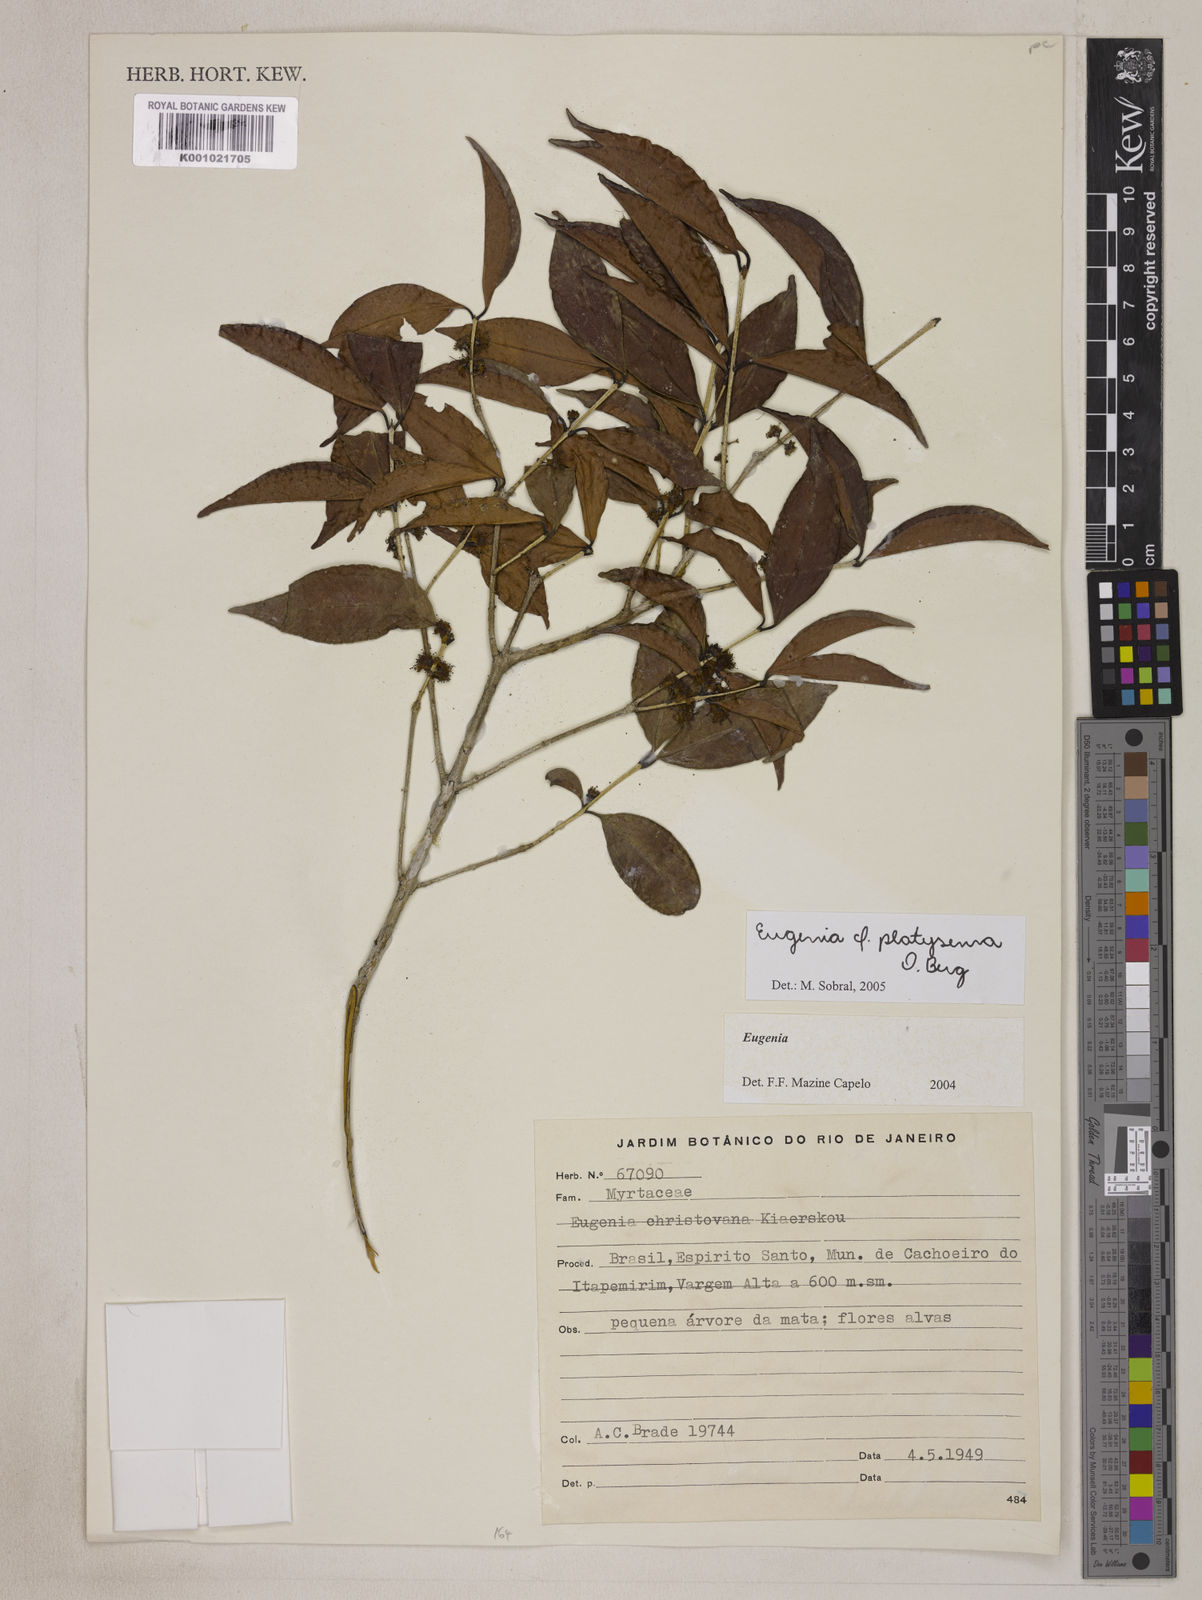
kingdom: Plantae
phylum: Tracheophyta
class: Magnoliopsida
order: Myrtales
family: Myrtaceae
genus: Eugenia
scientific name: Eugenia platysema
